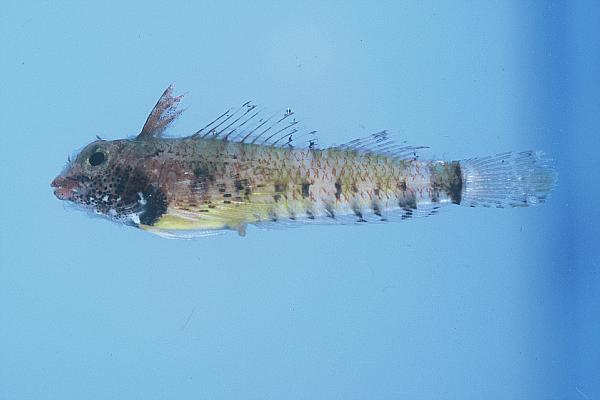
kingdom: Animalia
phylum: Chordata
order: Perciformes
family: Tripterygiidae
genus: Enneapterygius
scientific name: Enneapterygius ventermaculus
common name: Blotched triplefin
